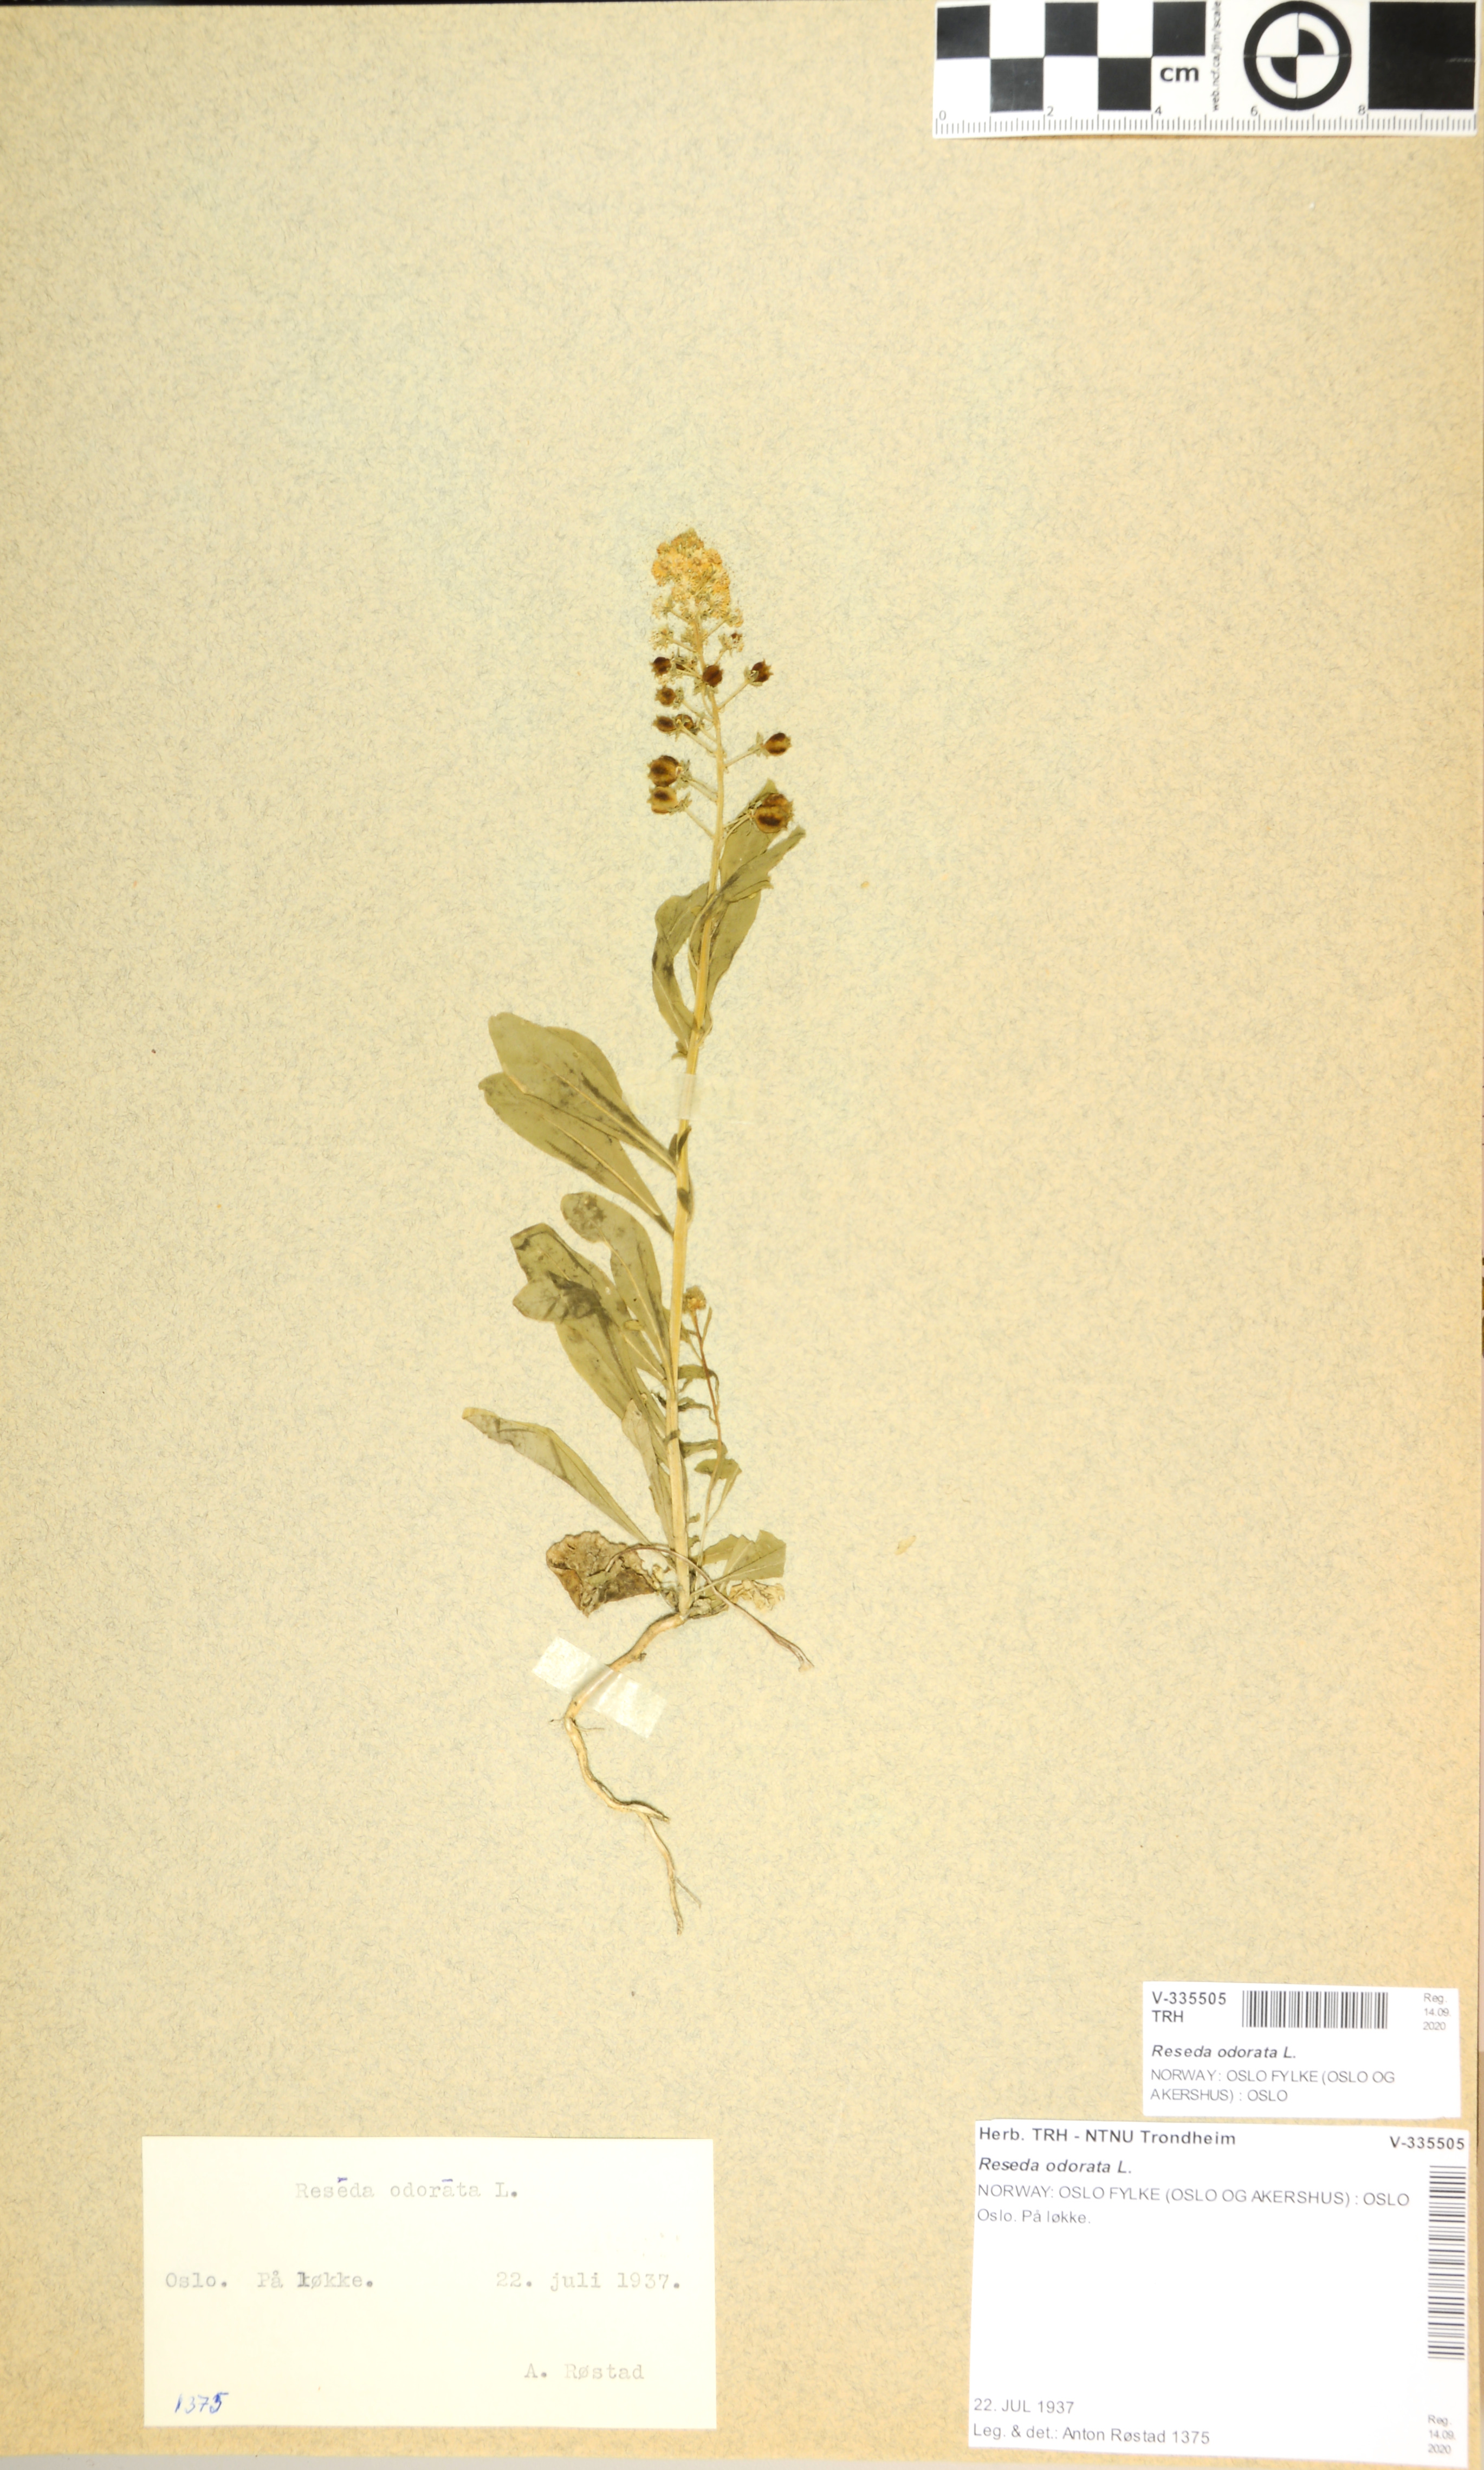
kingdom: Plantae
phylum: Tracheophyta
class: Magnoliopsida
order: Brassicales
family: Resedaceae
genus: Reseda
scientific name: Reseda odorata
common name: Garden mignonette
